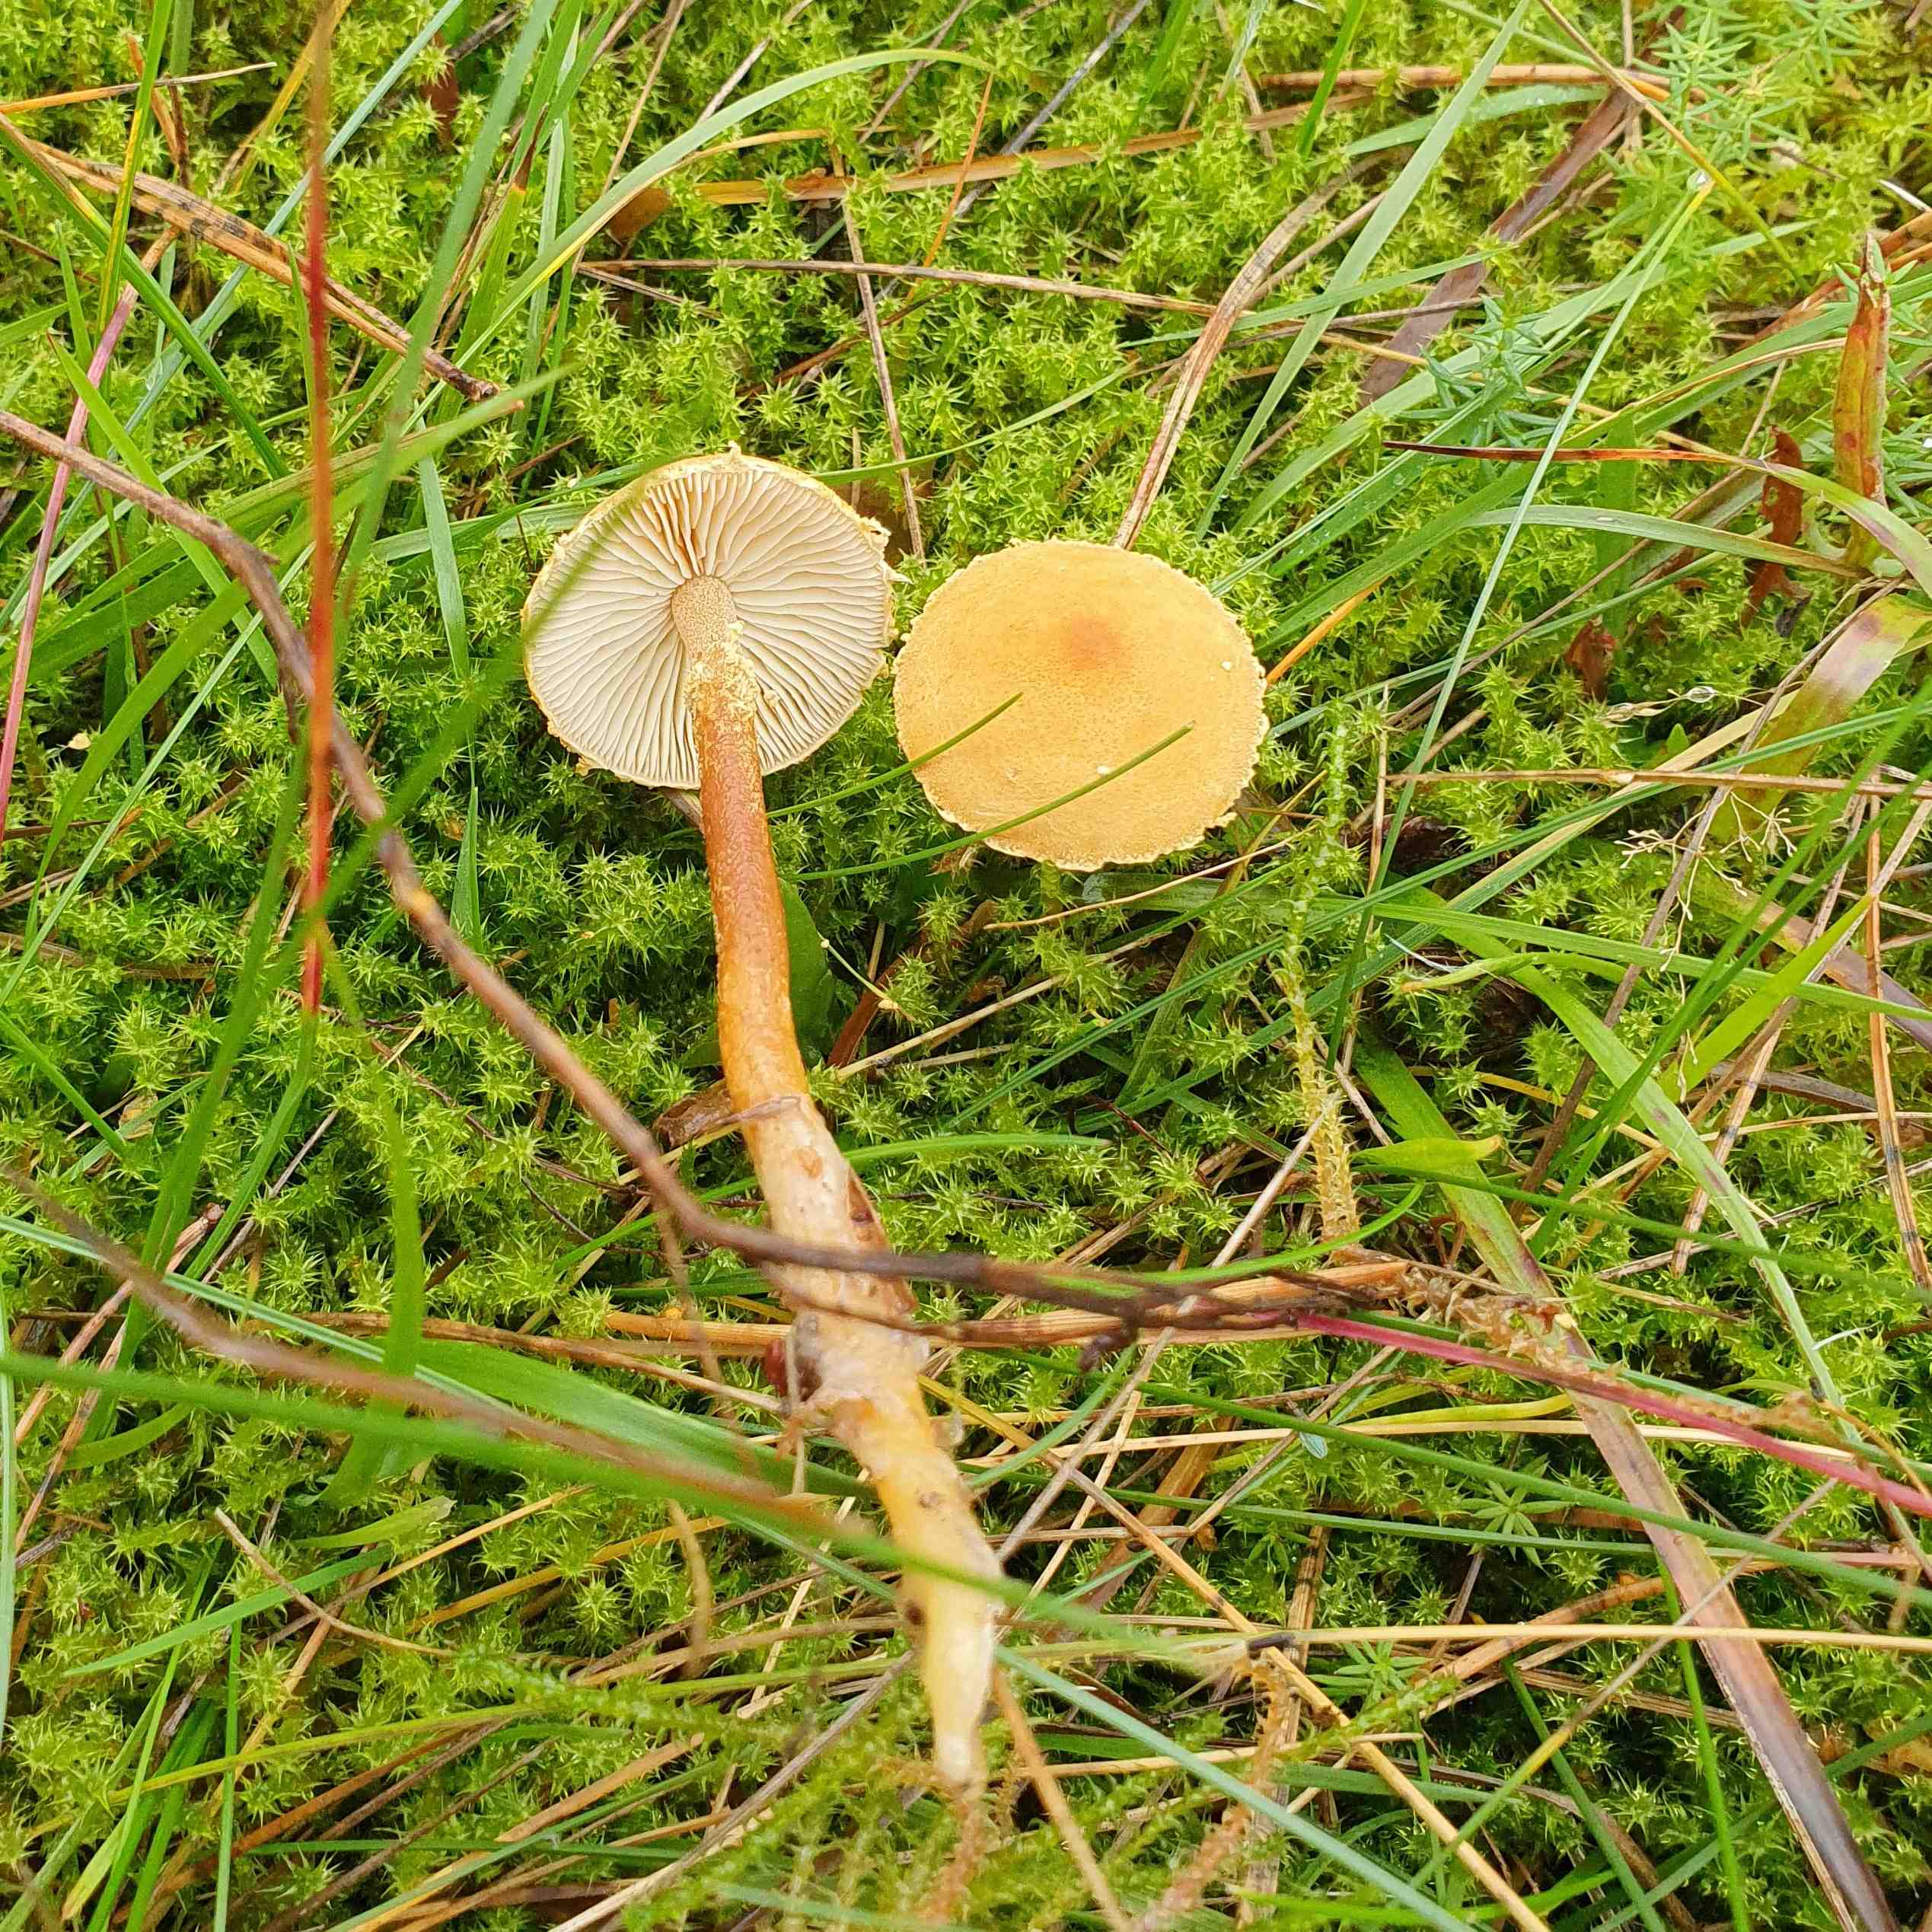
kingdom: Fungi
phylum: Basidiomycota
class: Agaricomycetes
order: Agaricales
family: Tricholomataceae
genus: Cystoderma
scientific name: Cystoderma amianthinum
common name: okkergul grynhat
